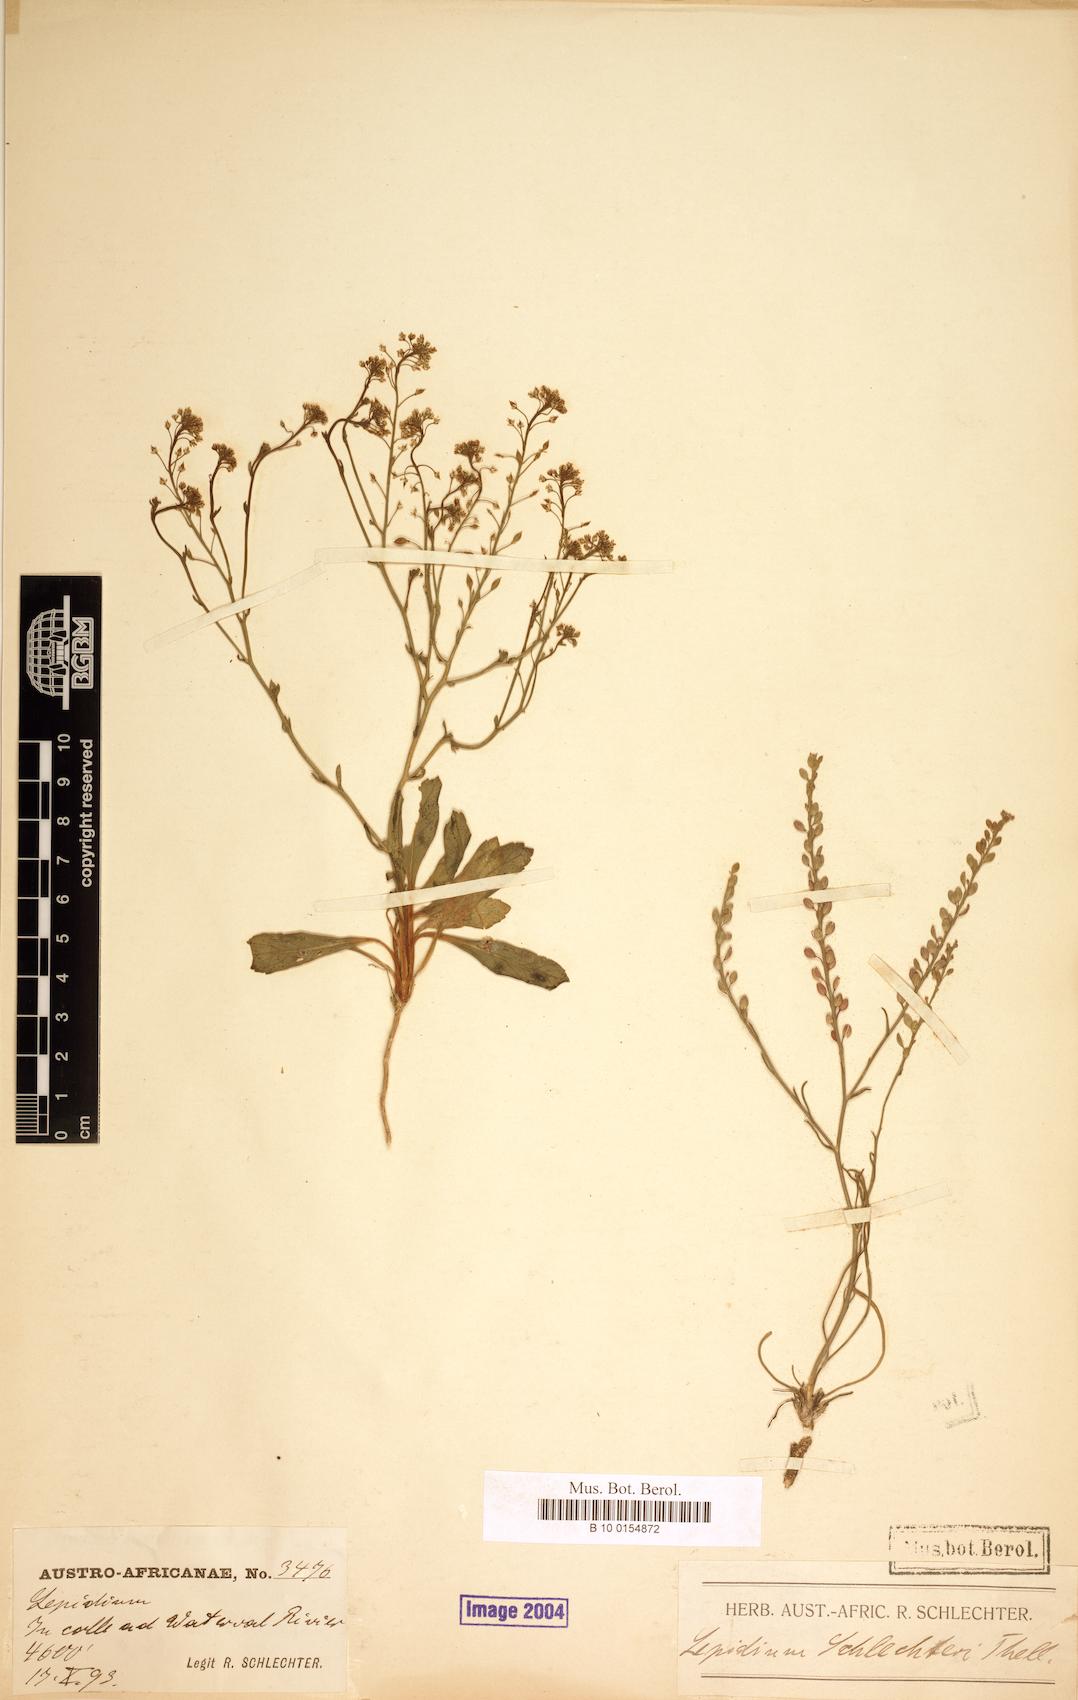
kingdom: Plantae
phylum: Tracheophyta
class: Magnoliopsida
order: Brassicales
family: Brassicaceae
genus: Lepidium
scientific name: Lepidium schlechteri
